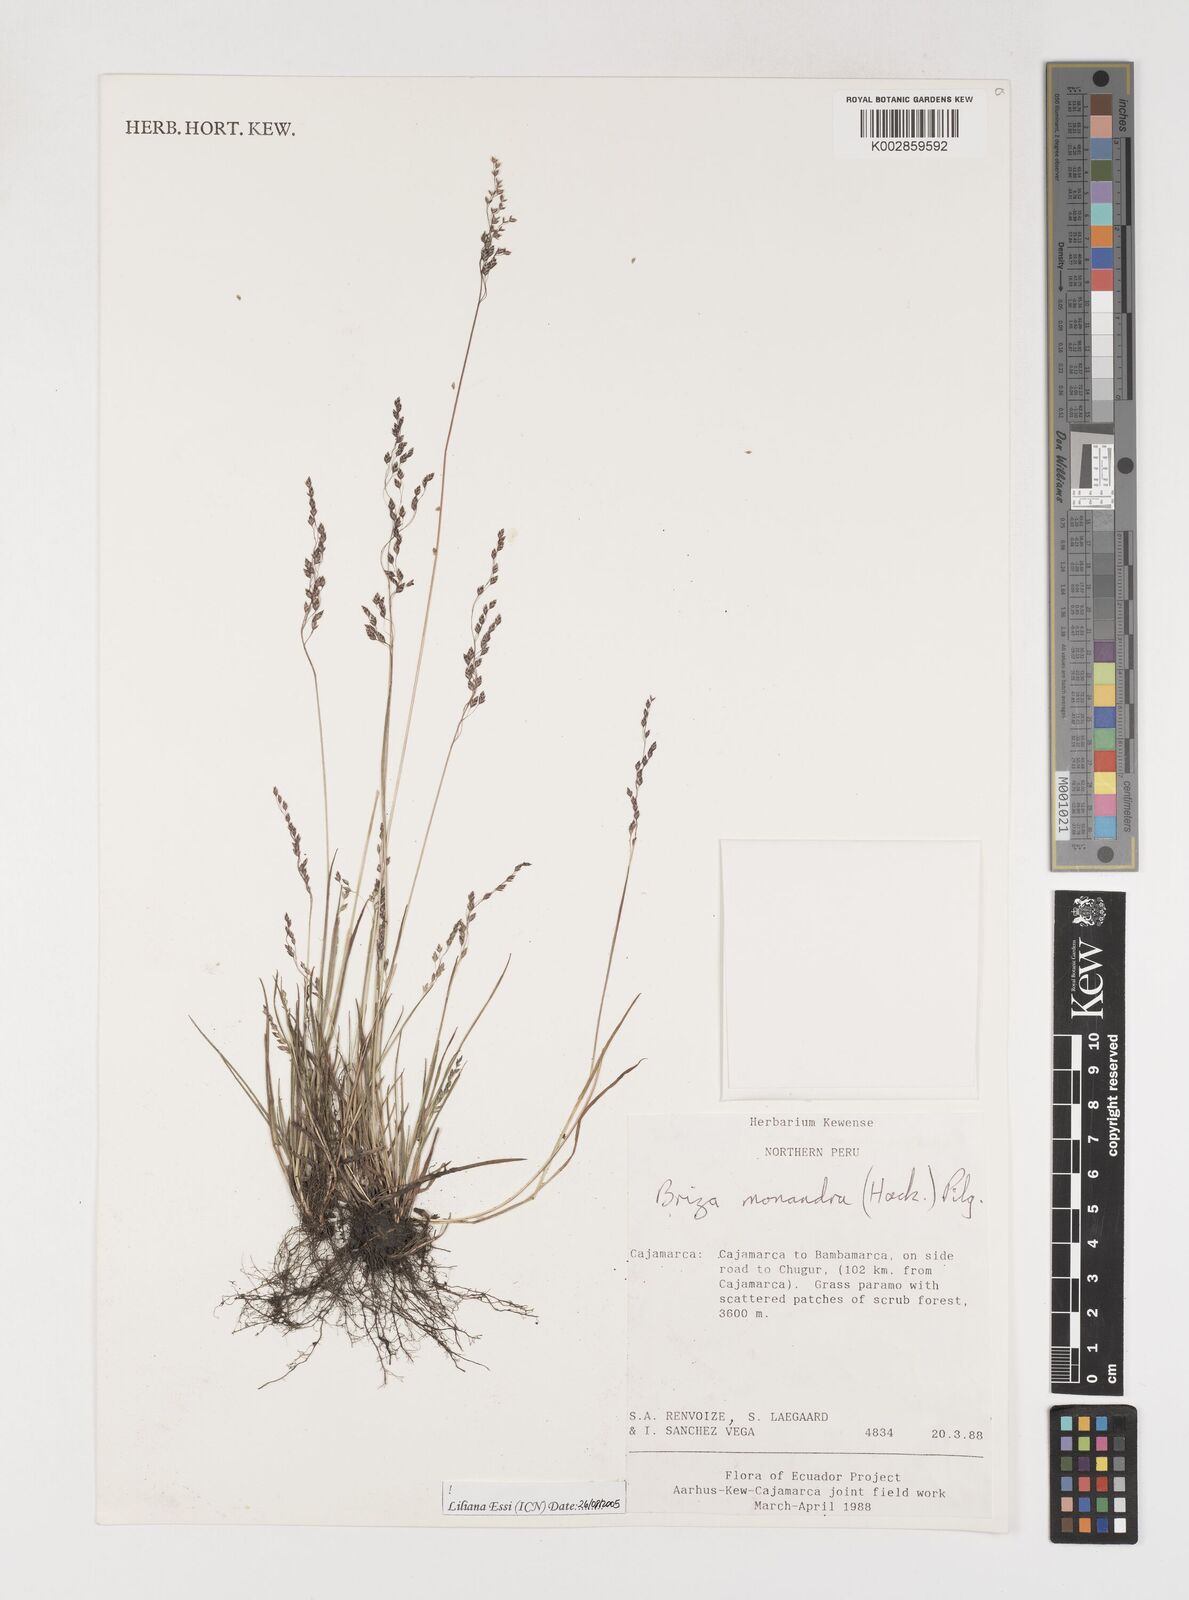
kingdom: Plantae
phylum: Tracheophyta
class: Liliopsida
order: Poales
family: Poaceae
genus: Poidium
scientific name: Poidium monandrum
